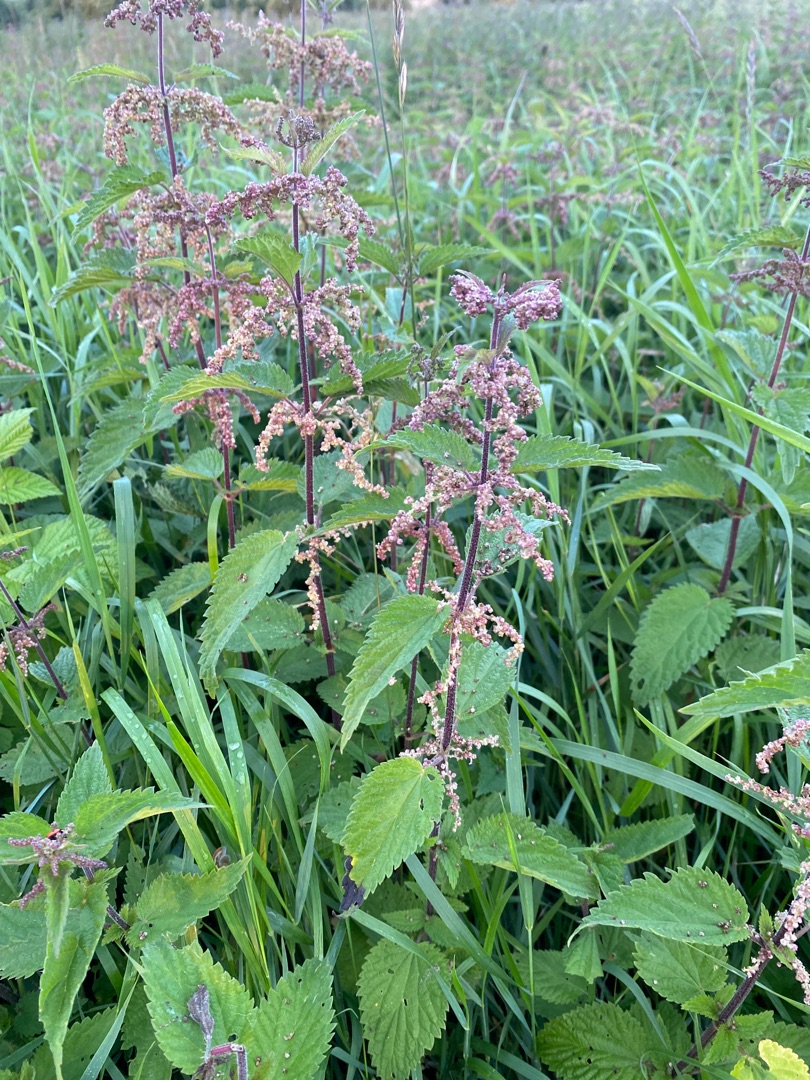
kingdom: Plantae
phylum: Tracheophyta
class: Magnoliopsida
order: Rosales
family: Urticaceae
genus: Urtica
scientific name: Urtica dioica
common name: Stor nælde
